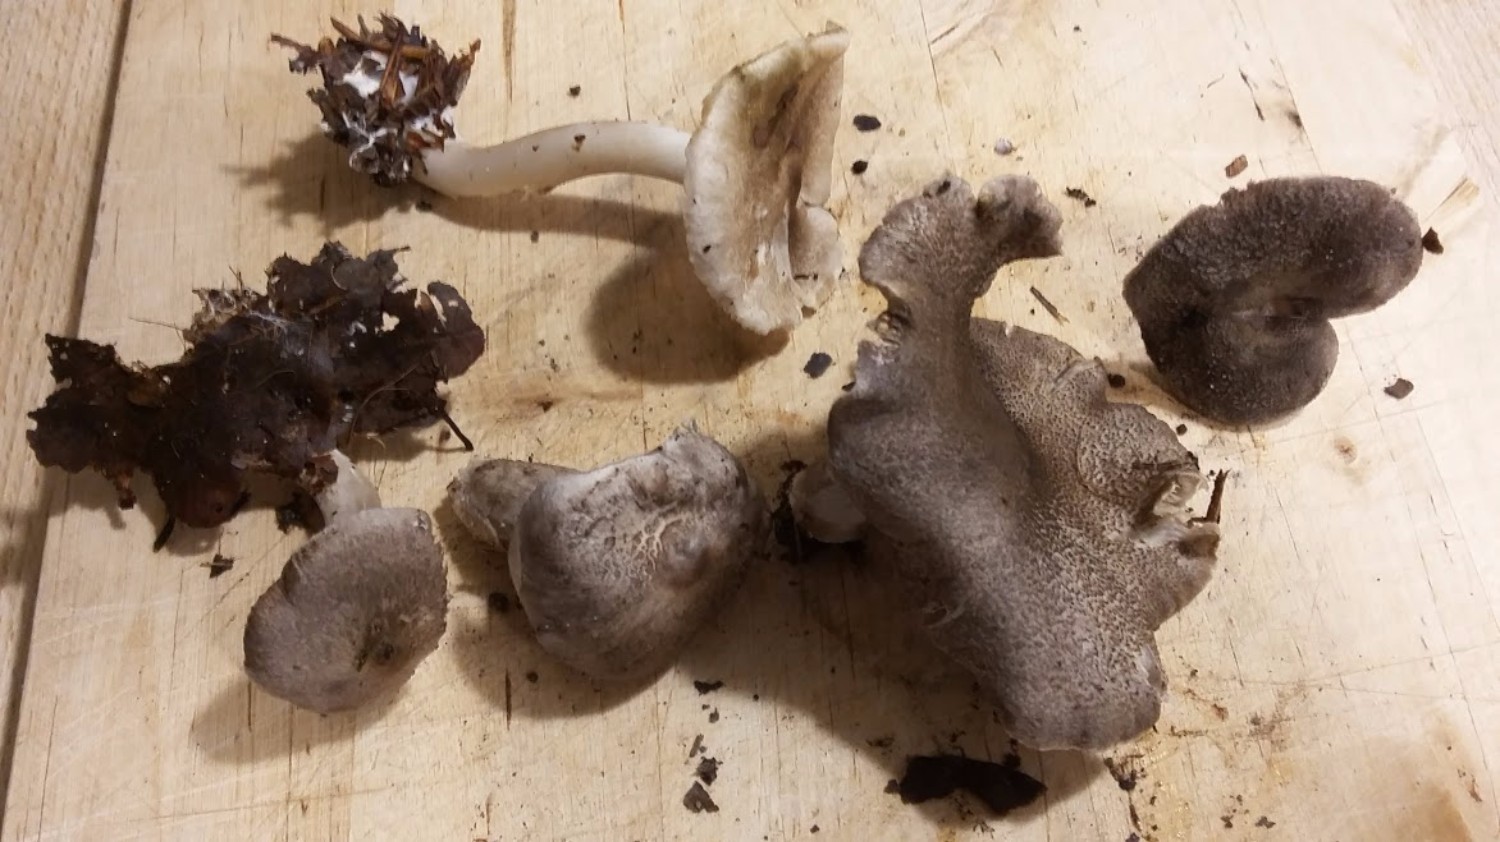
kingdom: Fungi
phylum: Basidiomycota
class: Agaricomycetes
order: Agaricales
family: Tricholomataceae
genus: Tricholoma
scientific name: Tricholoma scalpturatum
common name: gulplettet ridderhat
